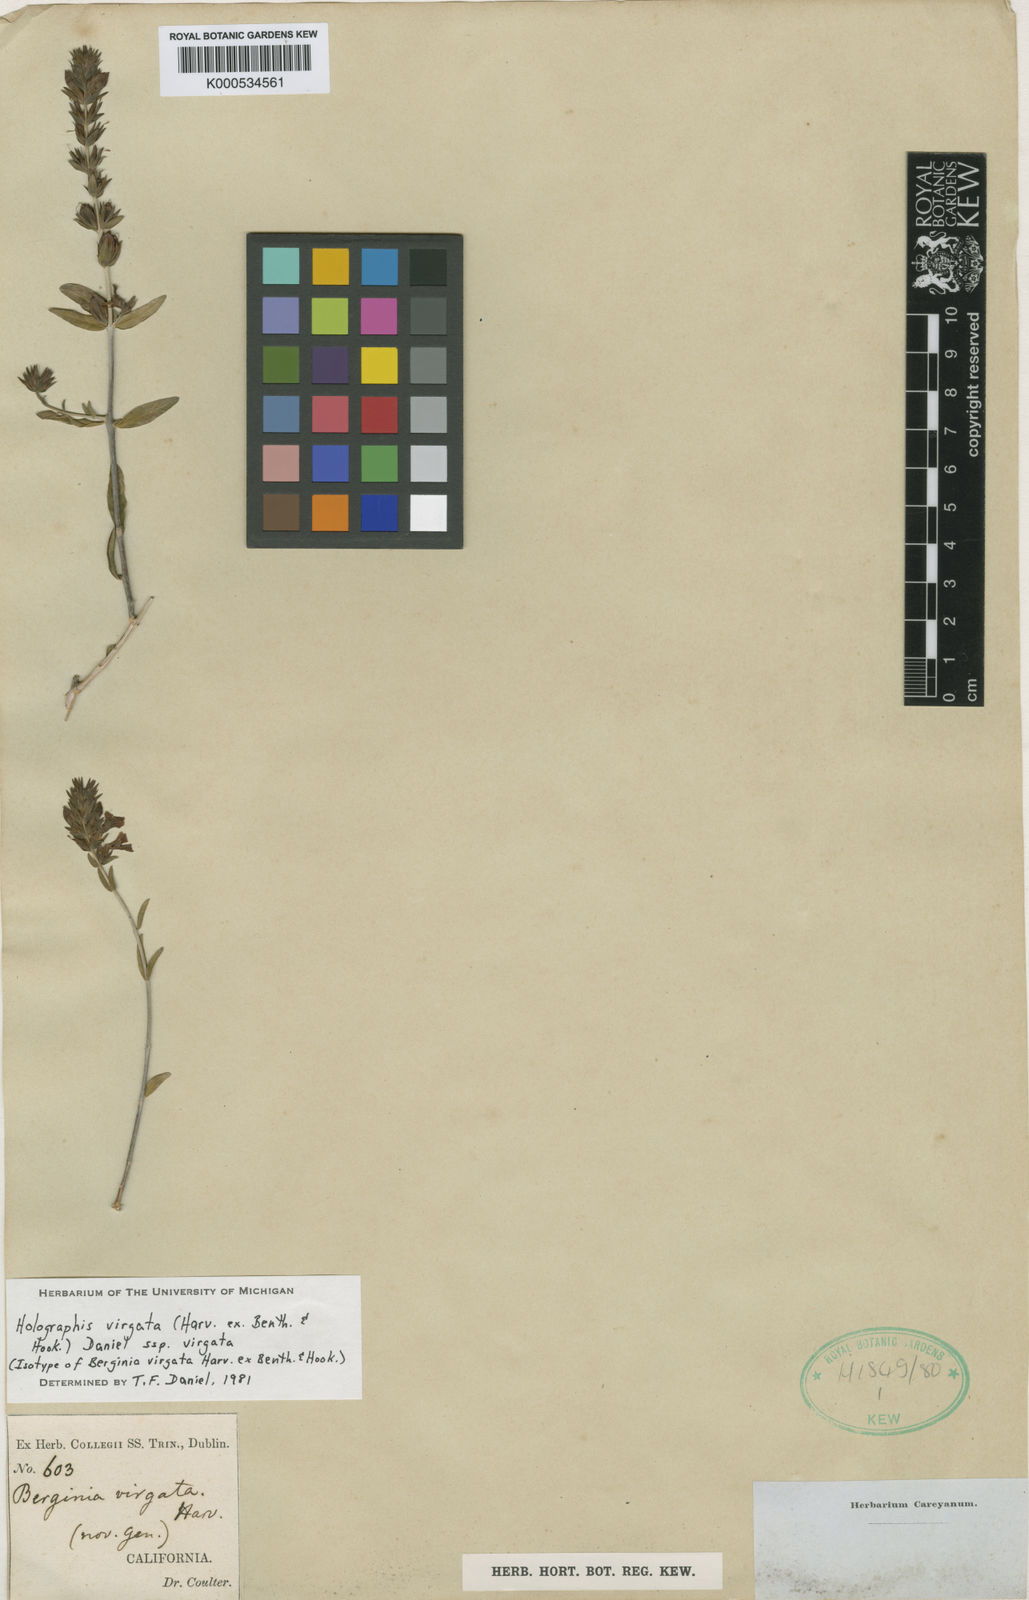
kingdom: Plantae
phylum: Tracheophyta
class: Magnoliopsida
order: Lamiales
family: Acanthaceae
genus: Holographis
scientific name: Holographis virgata
